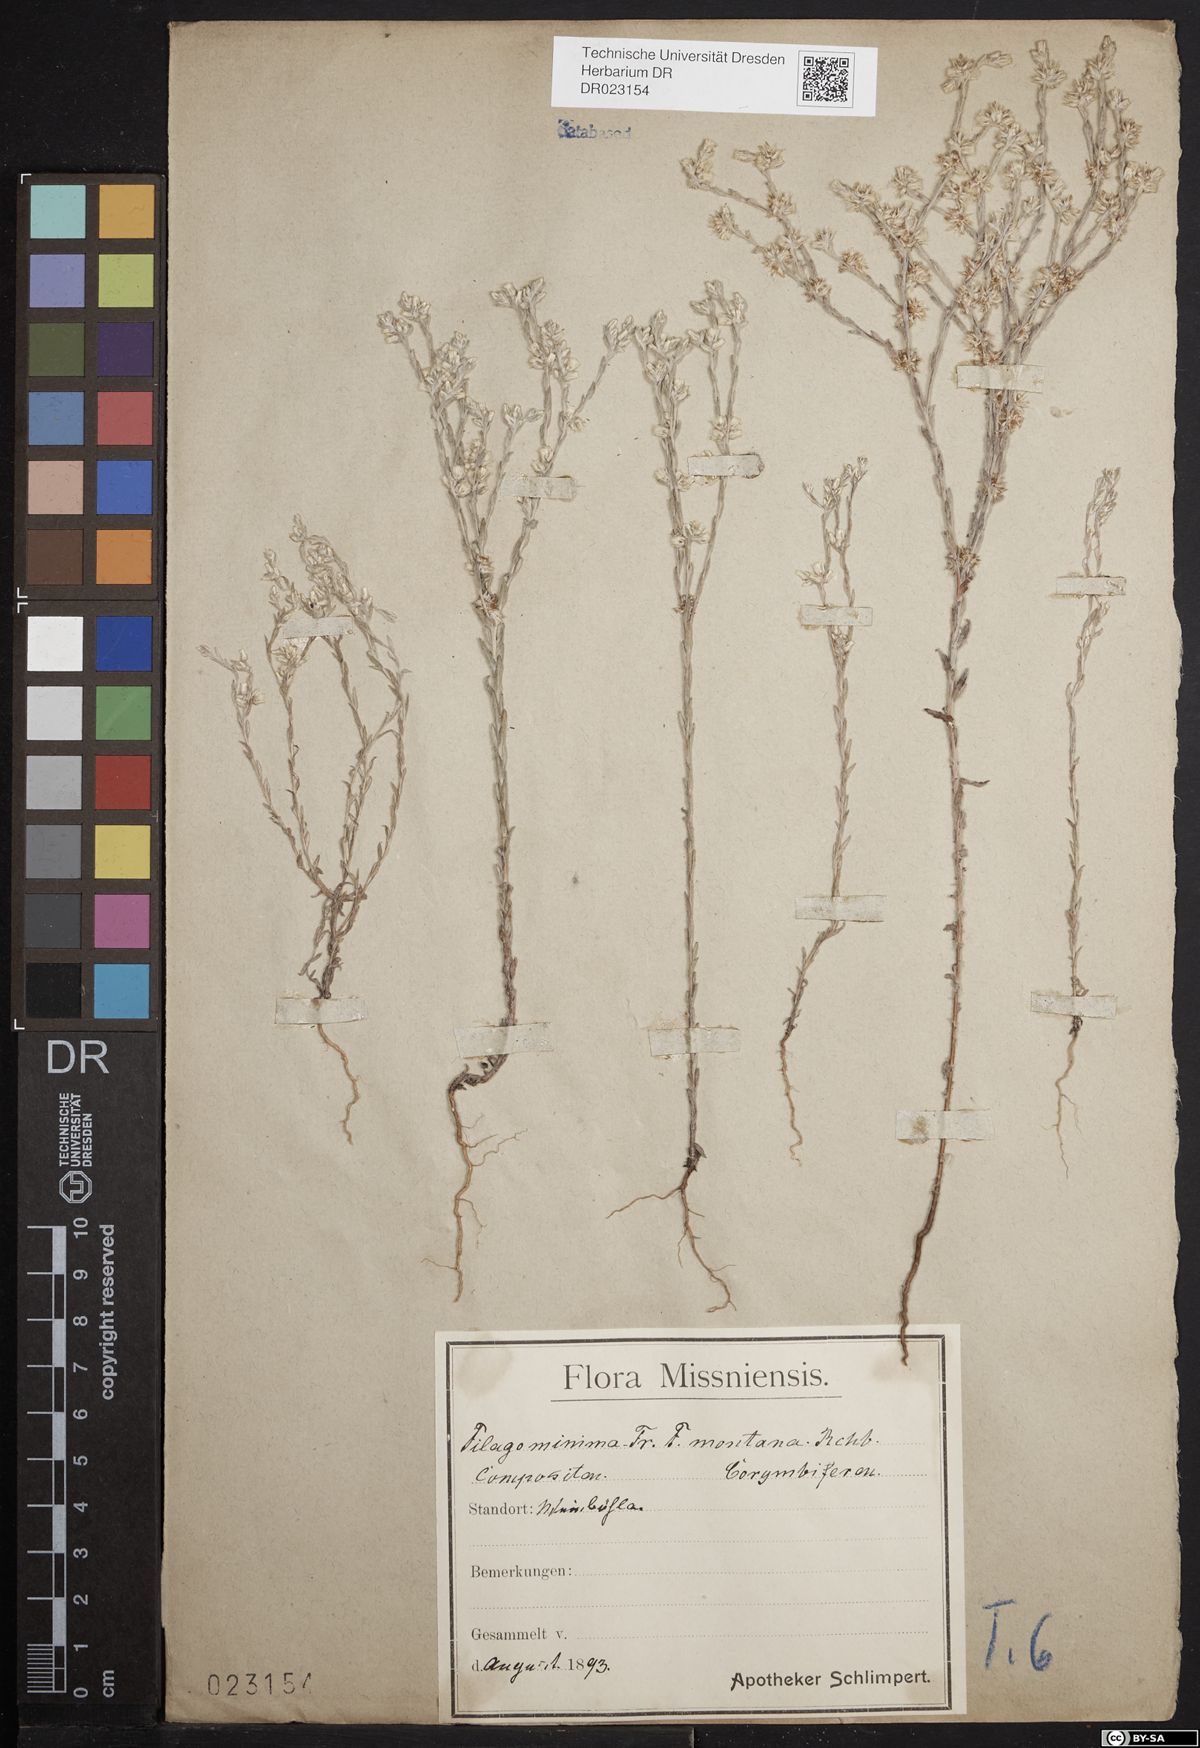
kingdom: Plantae
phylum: Tracheophyta
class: Magnoliopsida
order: Asterales
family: Asteraceae
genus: Logfia
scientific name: Logfia minima
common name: Little cottonrose
